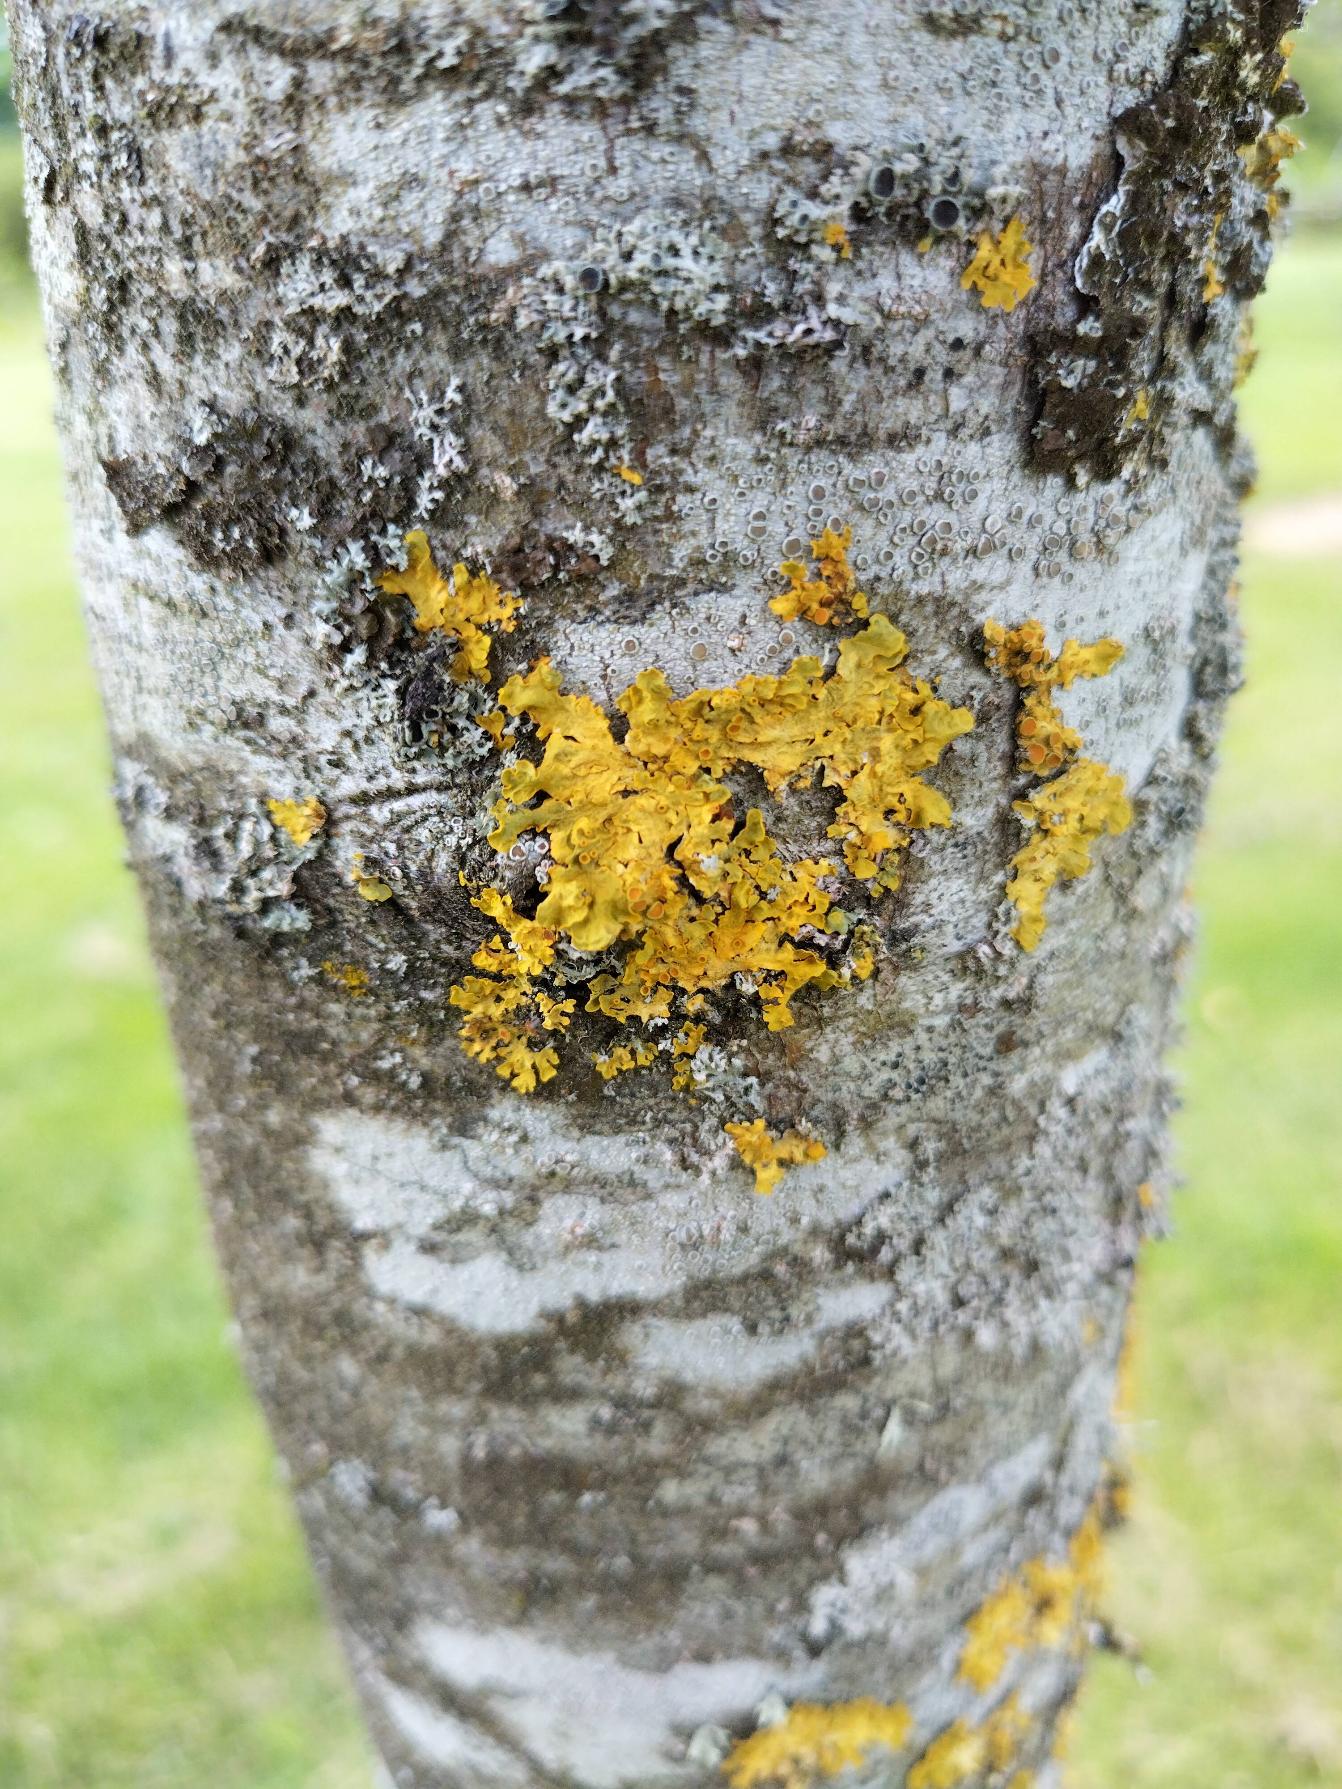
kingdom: Fungi
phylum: Ascomycota
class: Lecanoromycetes
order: Teloschistales
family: Teloschistaceae
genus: Xanthoria
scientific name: Xanthoria parietina
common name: Almindelig væggelav
